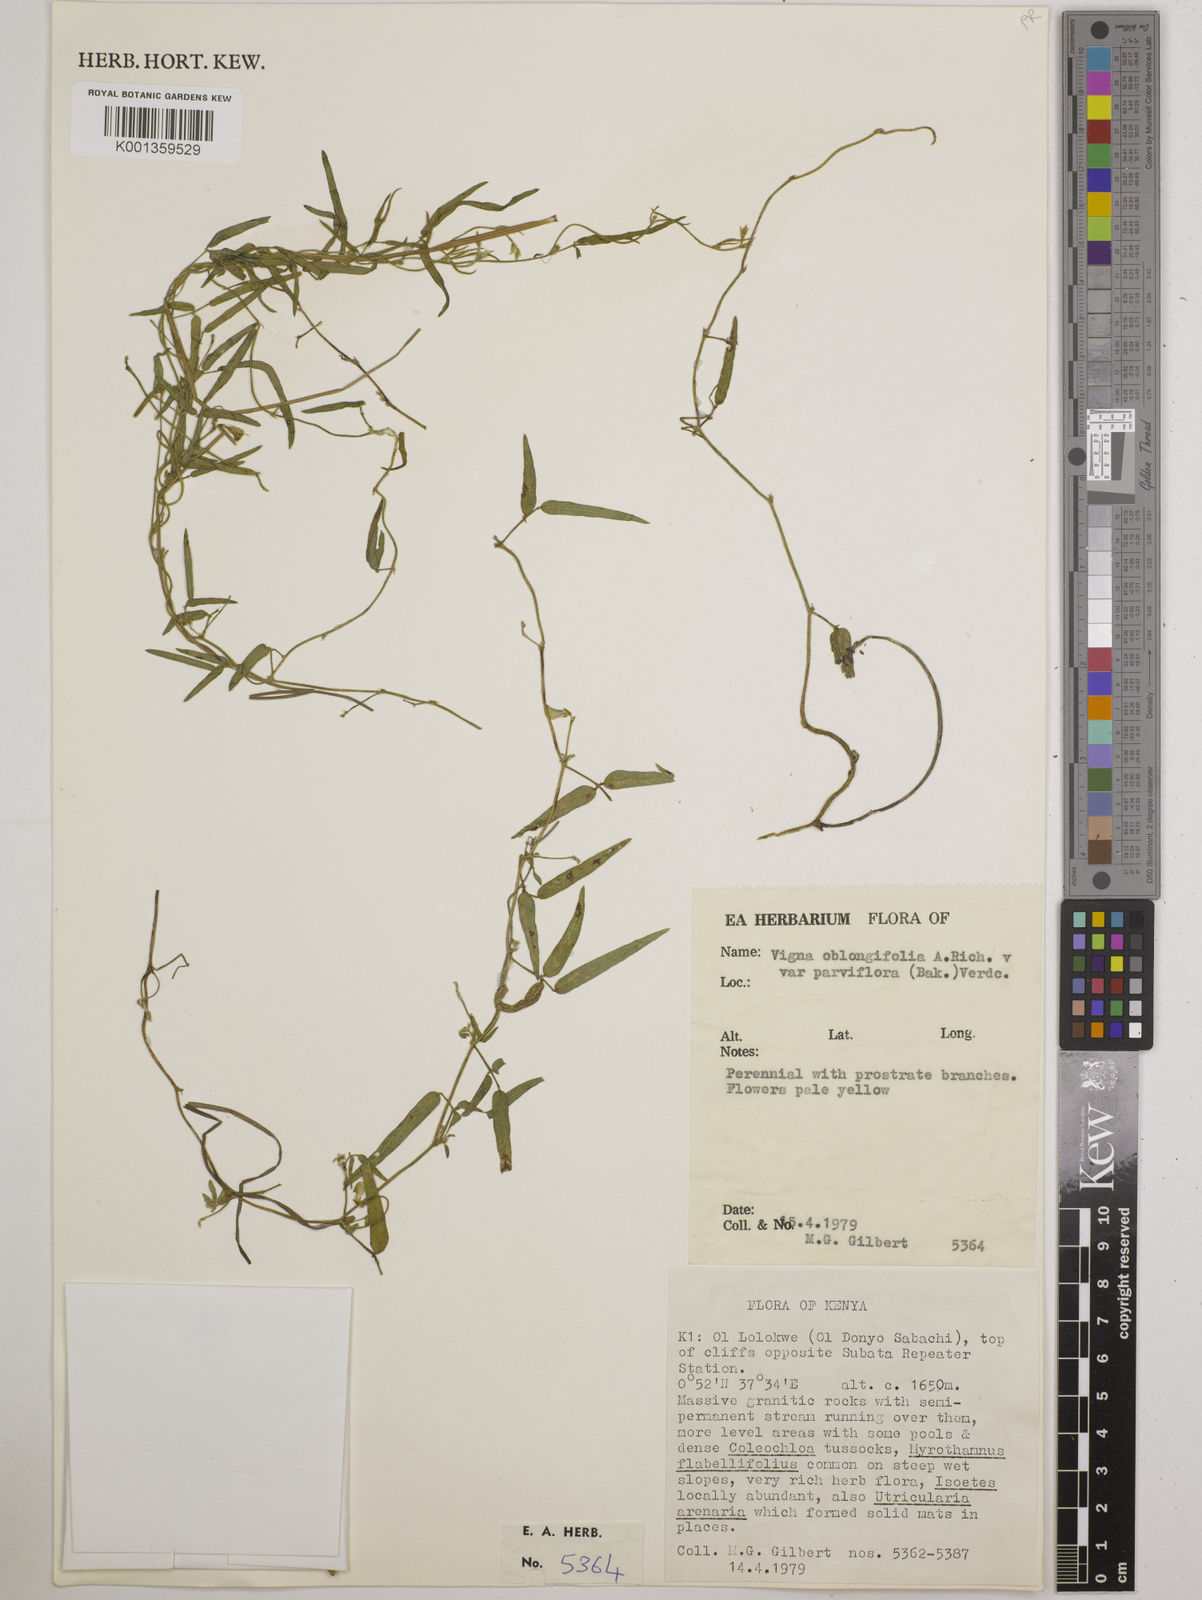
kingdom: Plantae
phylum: Tracheophyta
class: Magnoliopsida
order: Fabales
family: Fabaceae
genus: Vigna
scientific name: Vigna
